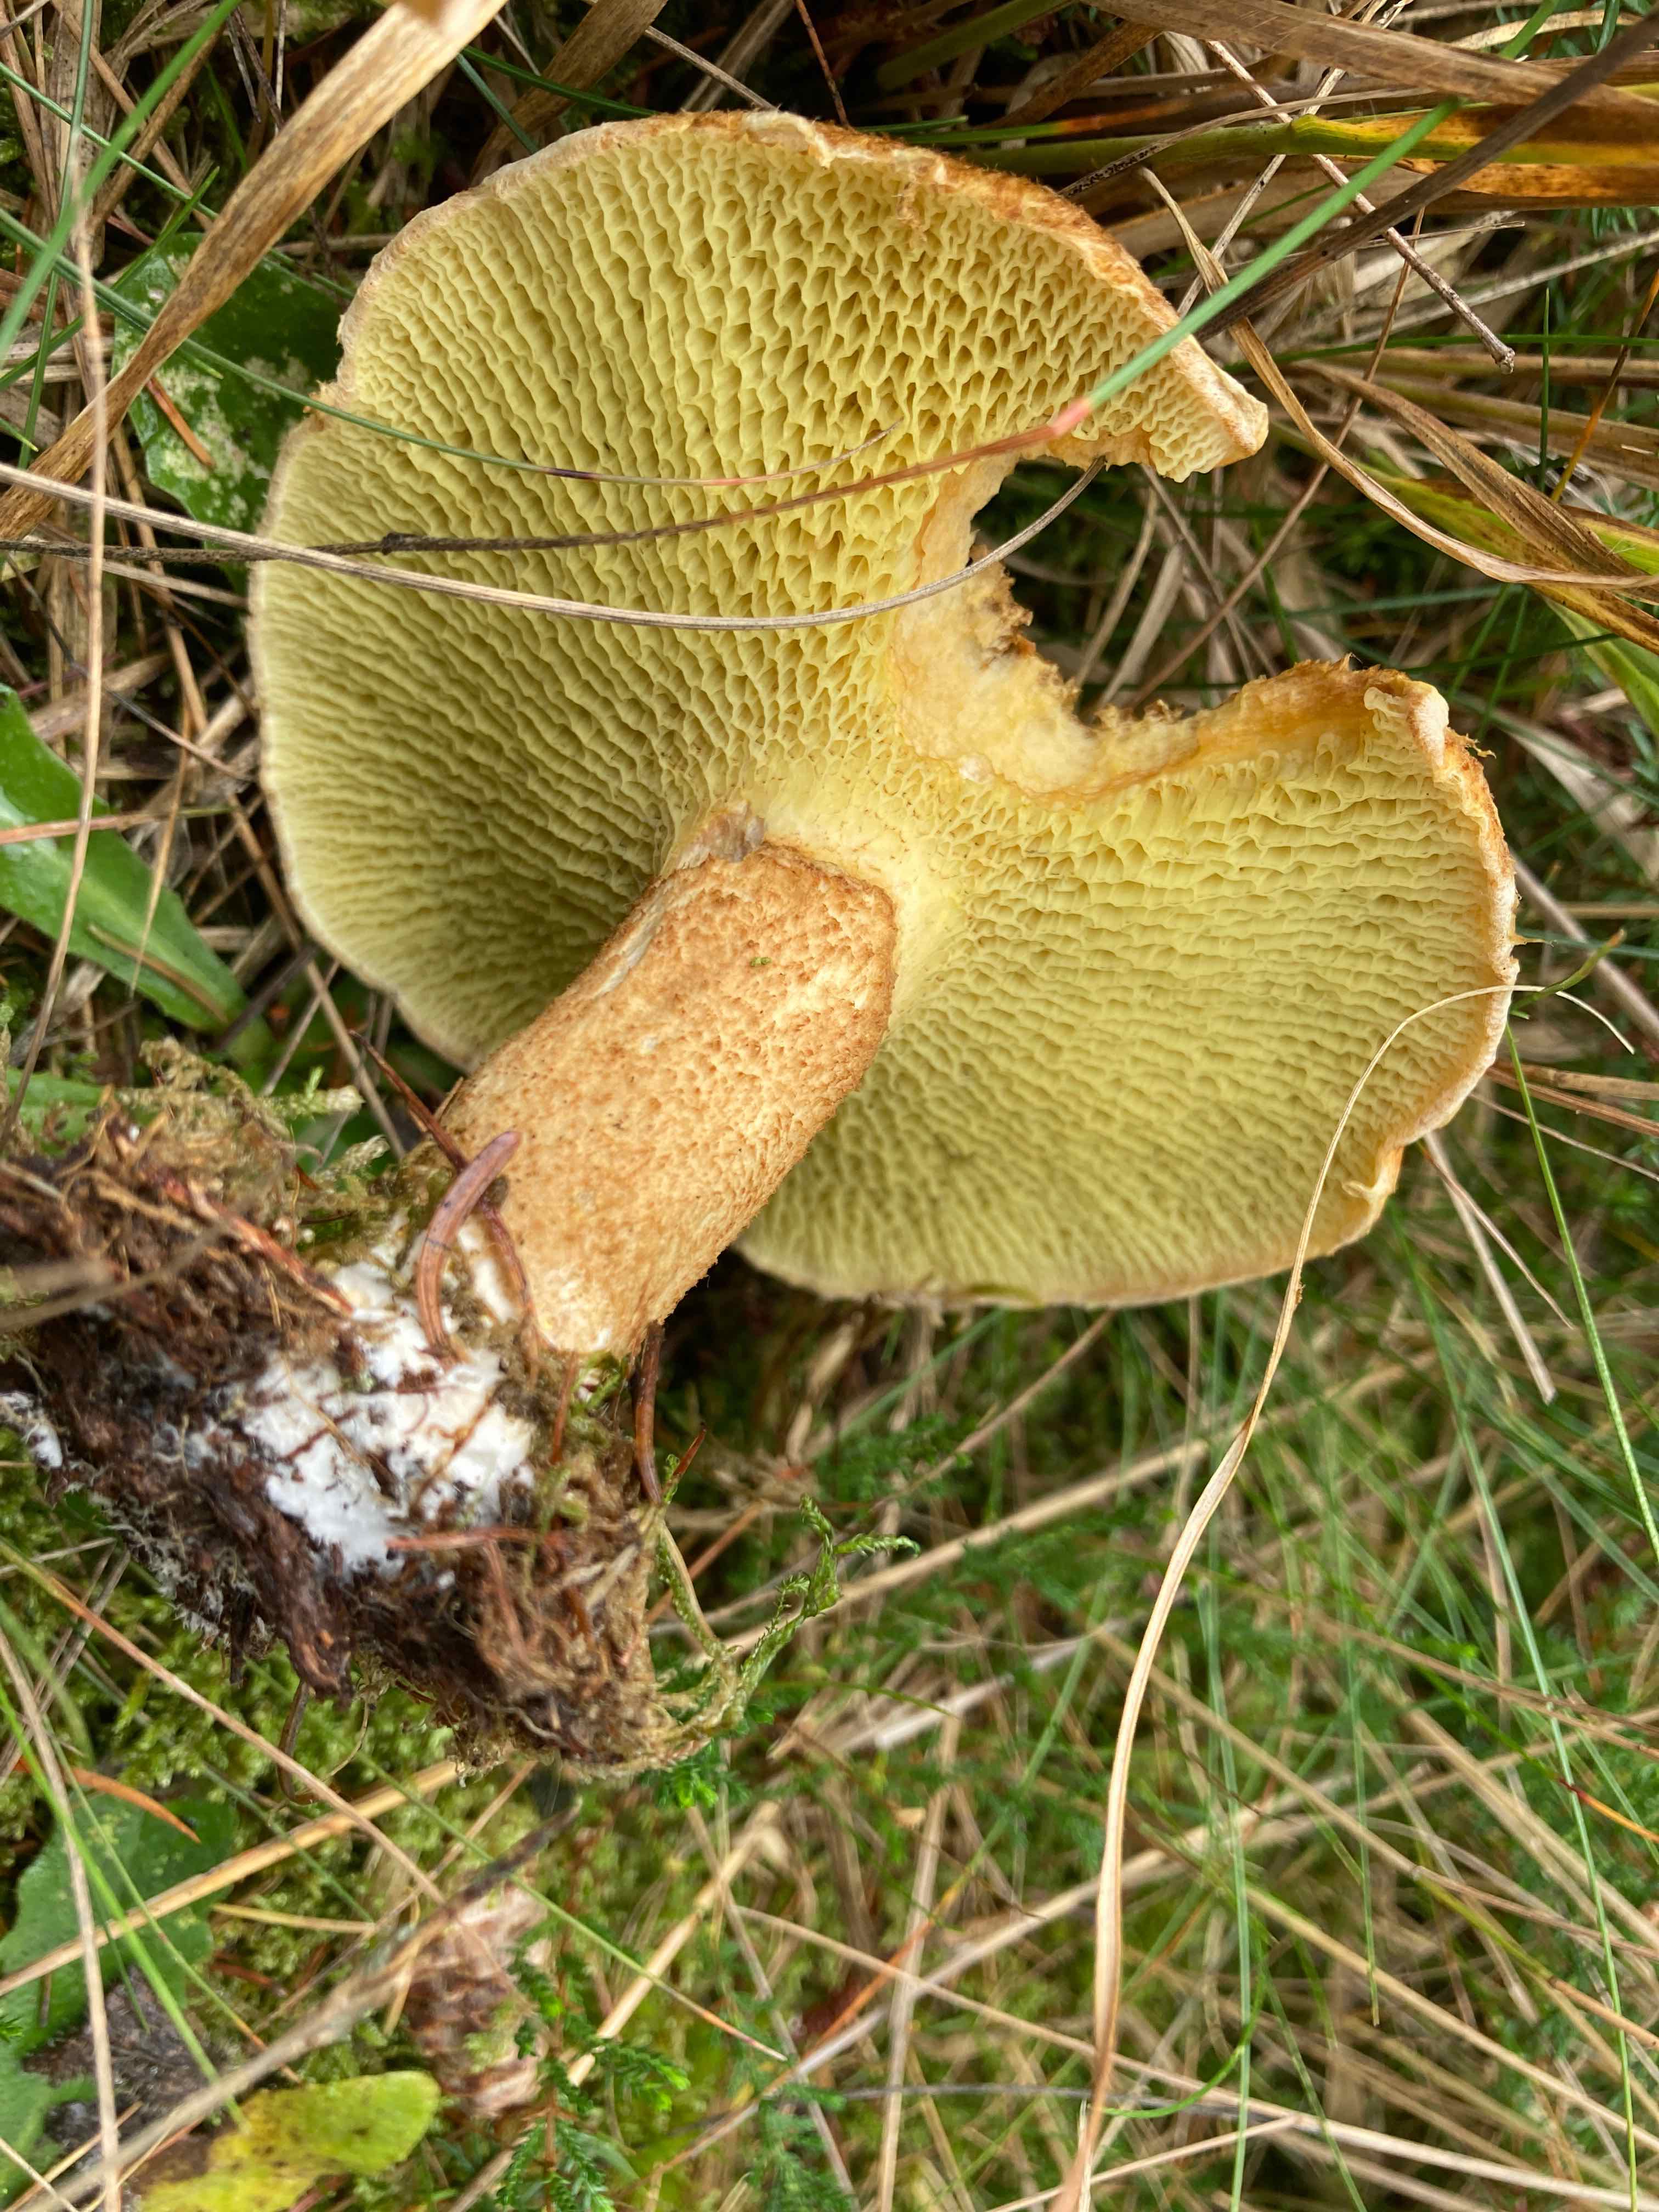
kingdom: Fungi
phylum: Basidiomycota
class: Agaricomycetes
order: Boletales
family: Suillaceae
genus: Suillus
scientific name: Suillus cavipes
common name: hulstokket slimrørhat
